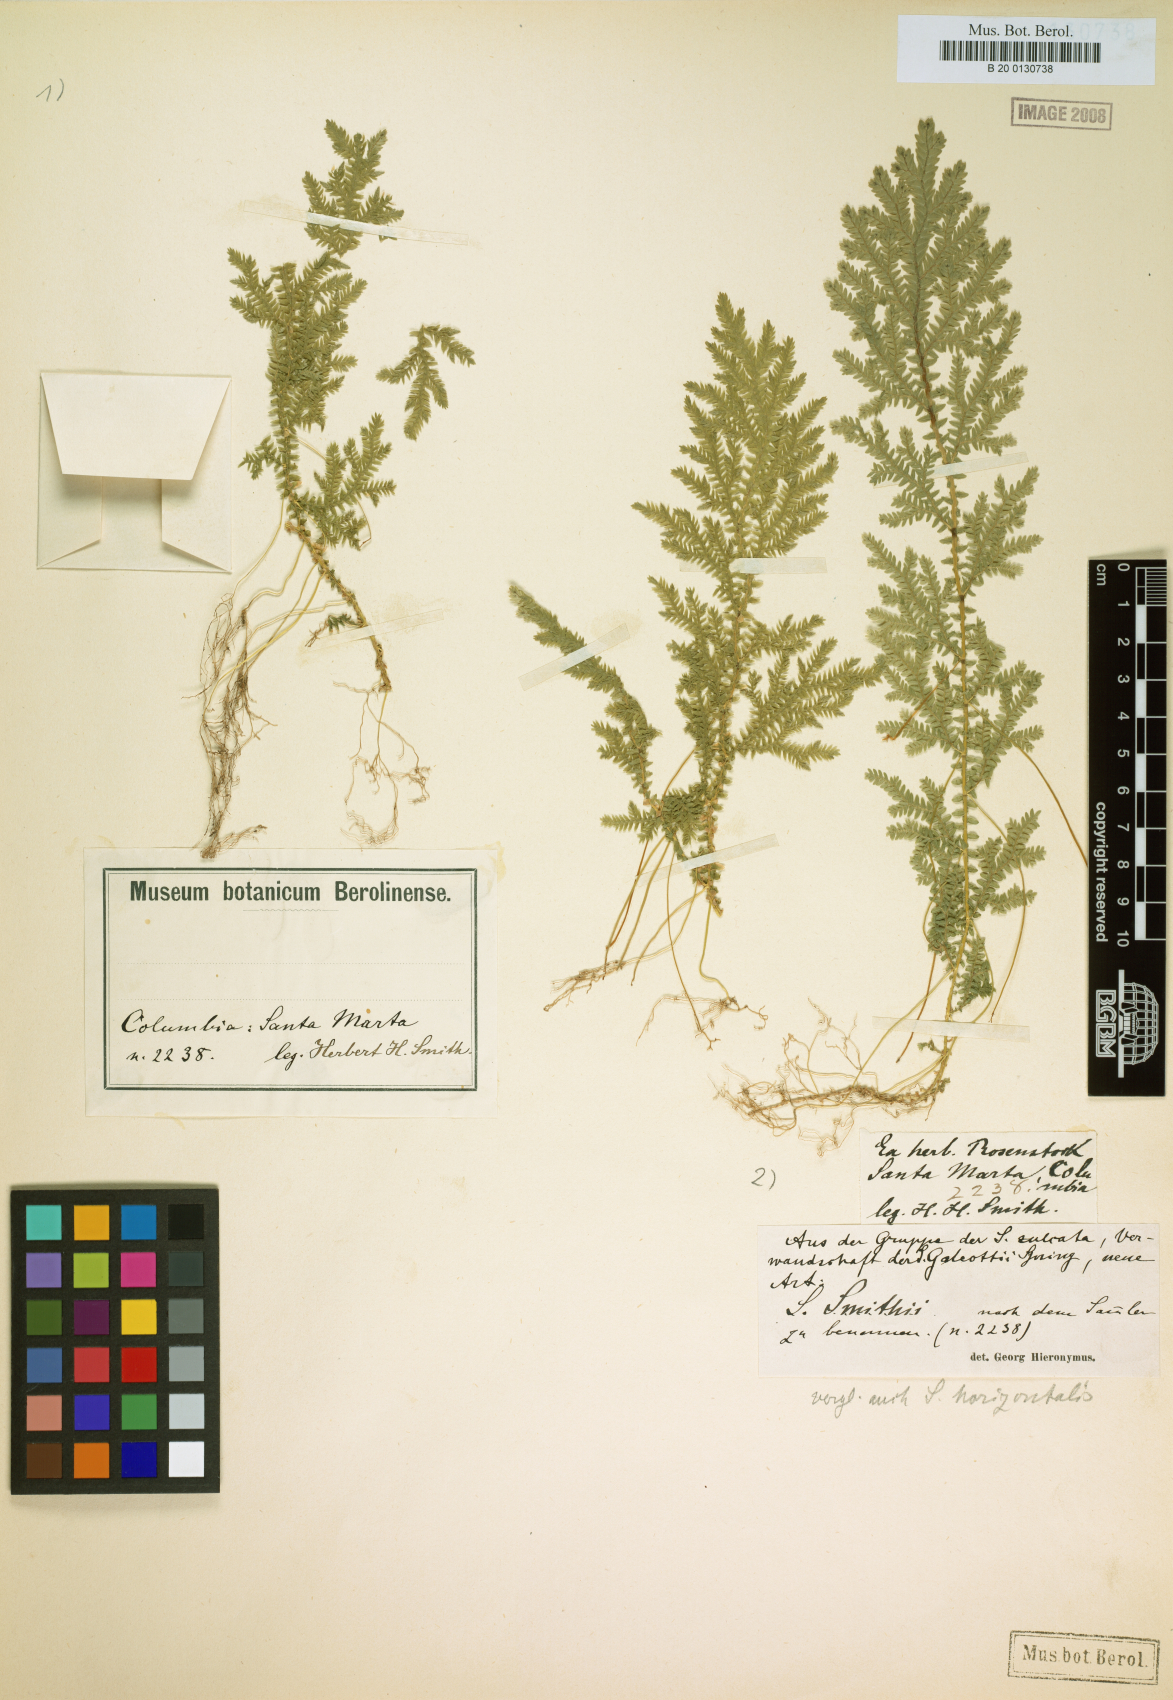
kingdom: Plantae
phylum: Tracheophyta
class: Lycopodiopsida
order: Selaginellales
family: Selaginellaceae
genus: Selaginella
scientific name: Selaginella vaginata
